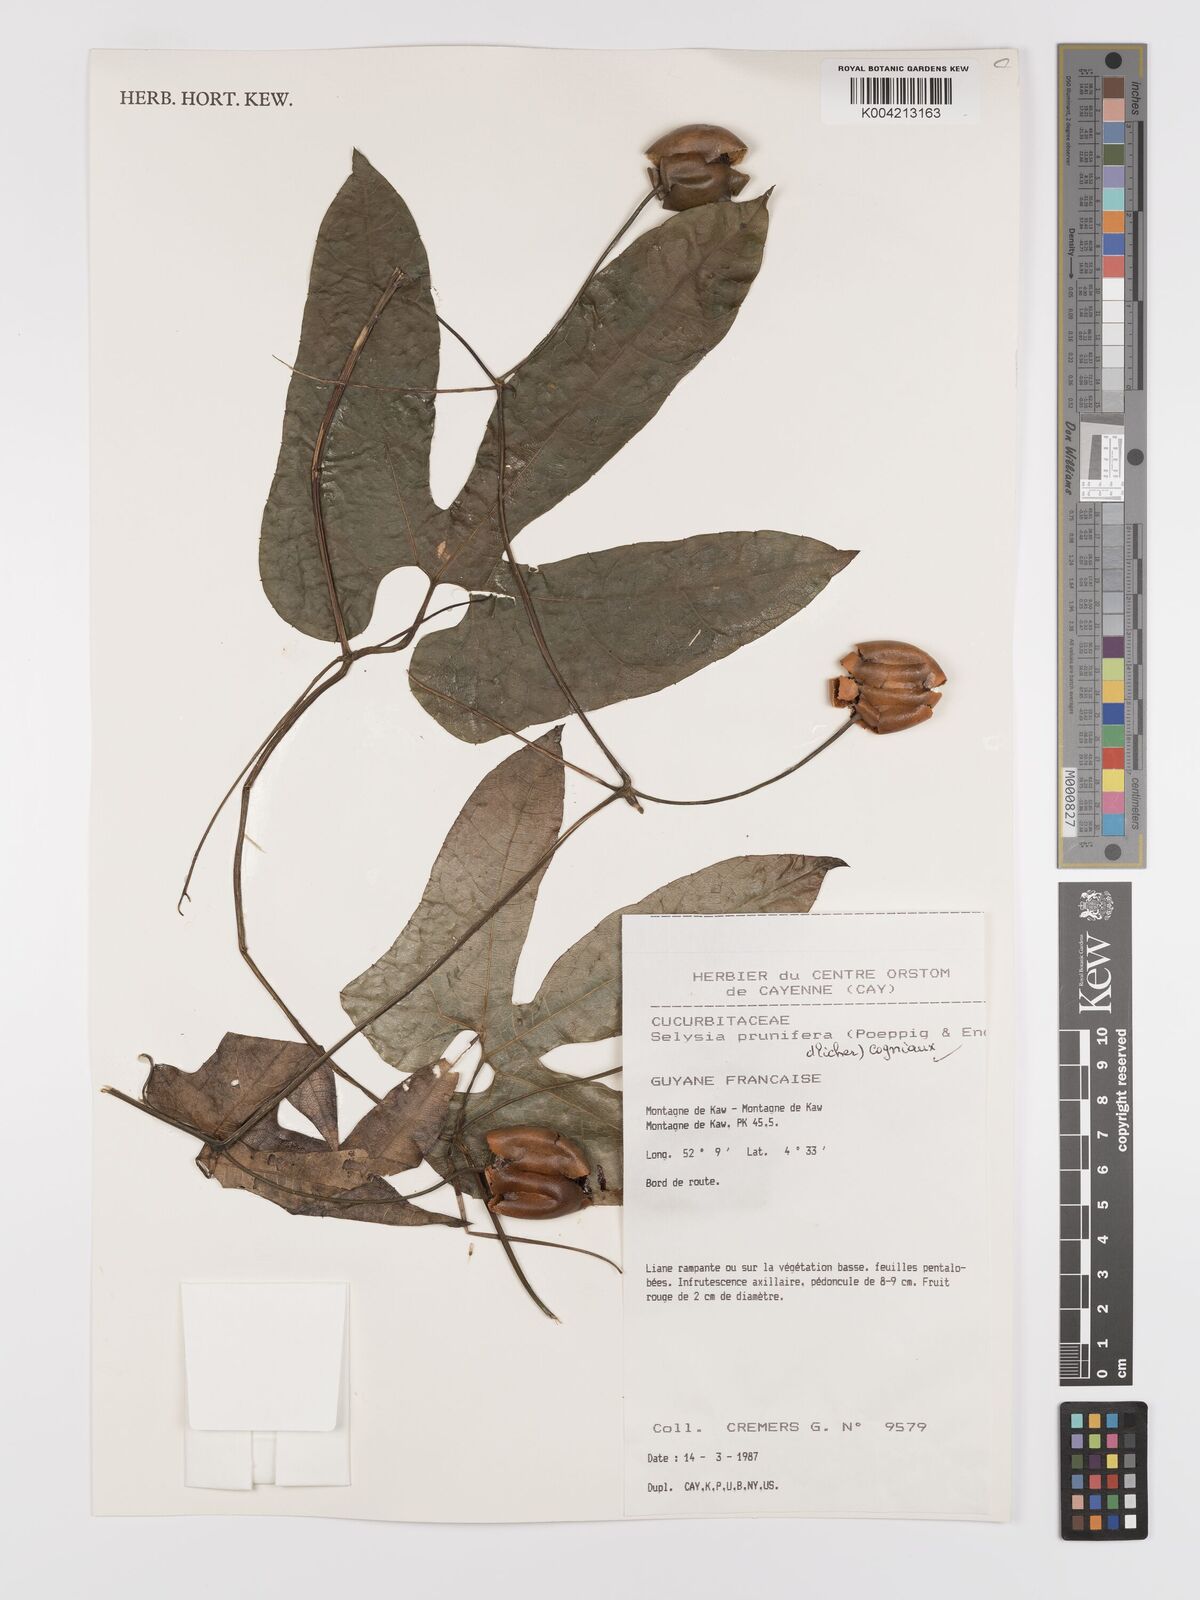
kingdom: Plantae
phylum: Tracheophyta
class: Magnoliopsida
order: Cucurbitales
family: Cucurbitaceae
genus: Cayaponia
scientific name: Cayaponia prunifera
